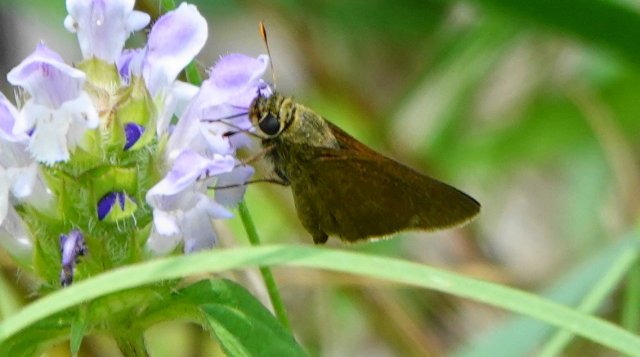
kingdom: Animalia
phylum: Arthropoda
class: Insecta
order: Lepidoptera
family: Hesperiidae
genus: Euphyes
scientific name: Euphyes vestris
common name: Dun Skipper
